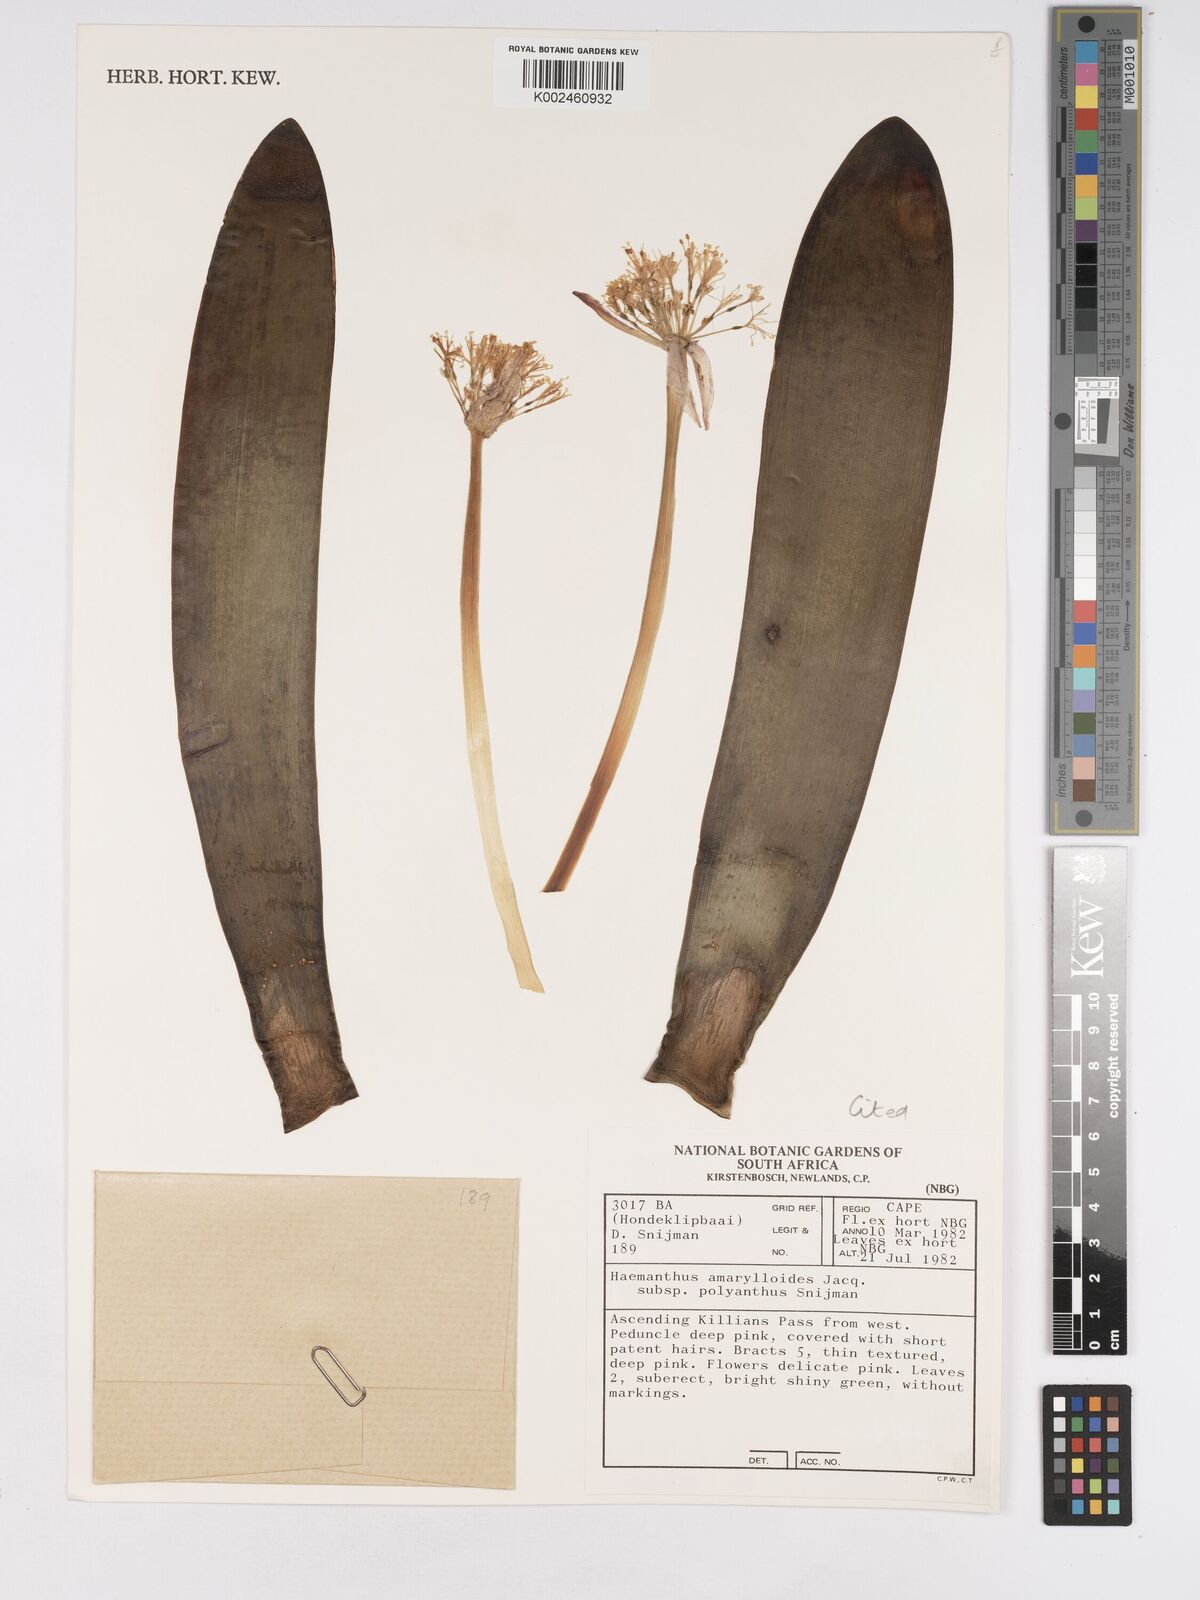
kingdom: Plantae
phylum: Tracheophyta
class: Liliopsida
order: Asparagales
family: Amaryllidaceae
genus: Haemanthus
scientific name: Haemanthus amarylloides
